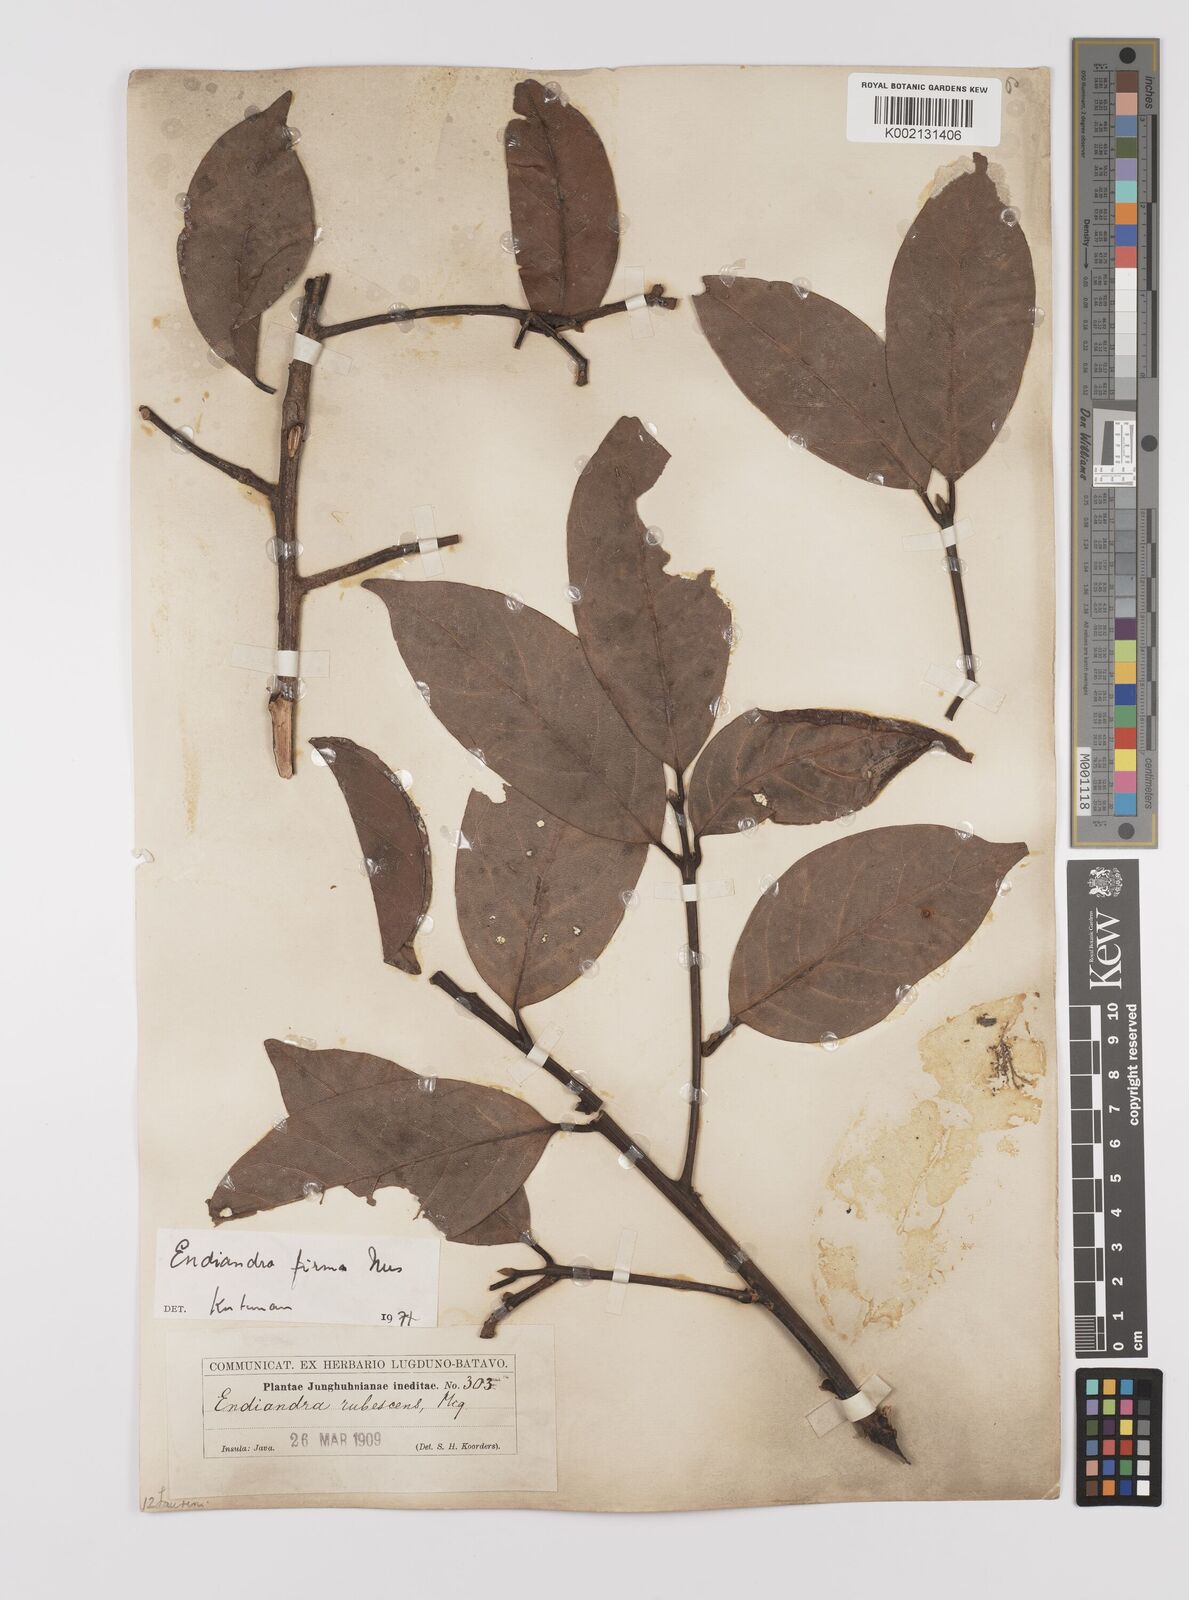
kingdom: Plantae
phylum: Tracheophyta
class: Magnoliopsida
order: Laurales
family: Lauraceae
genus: Endiandra
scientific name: Endiandra firma
